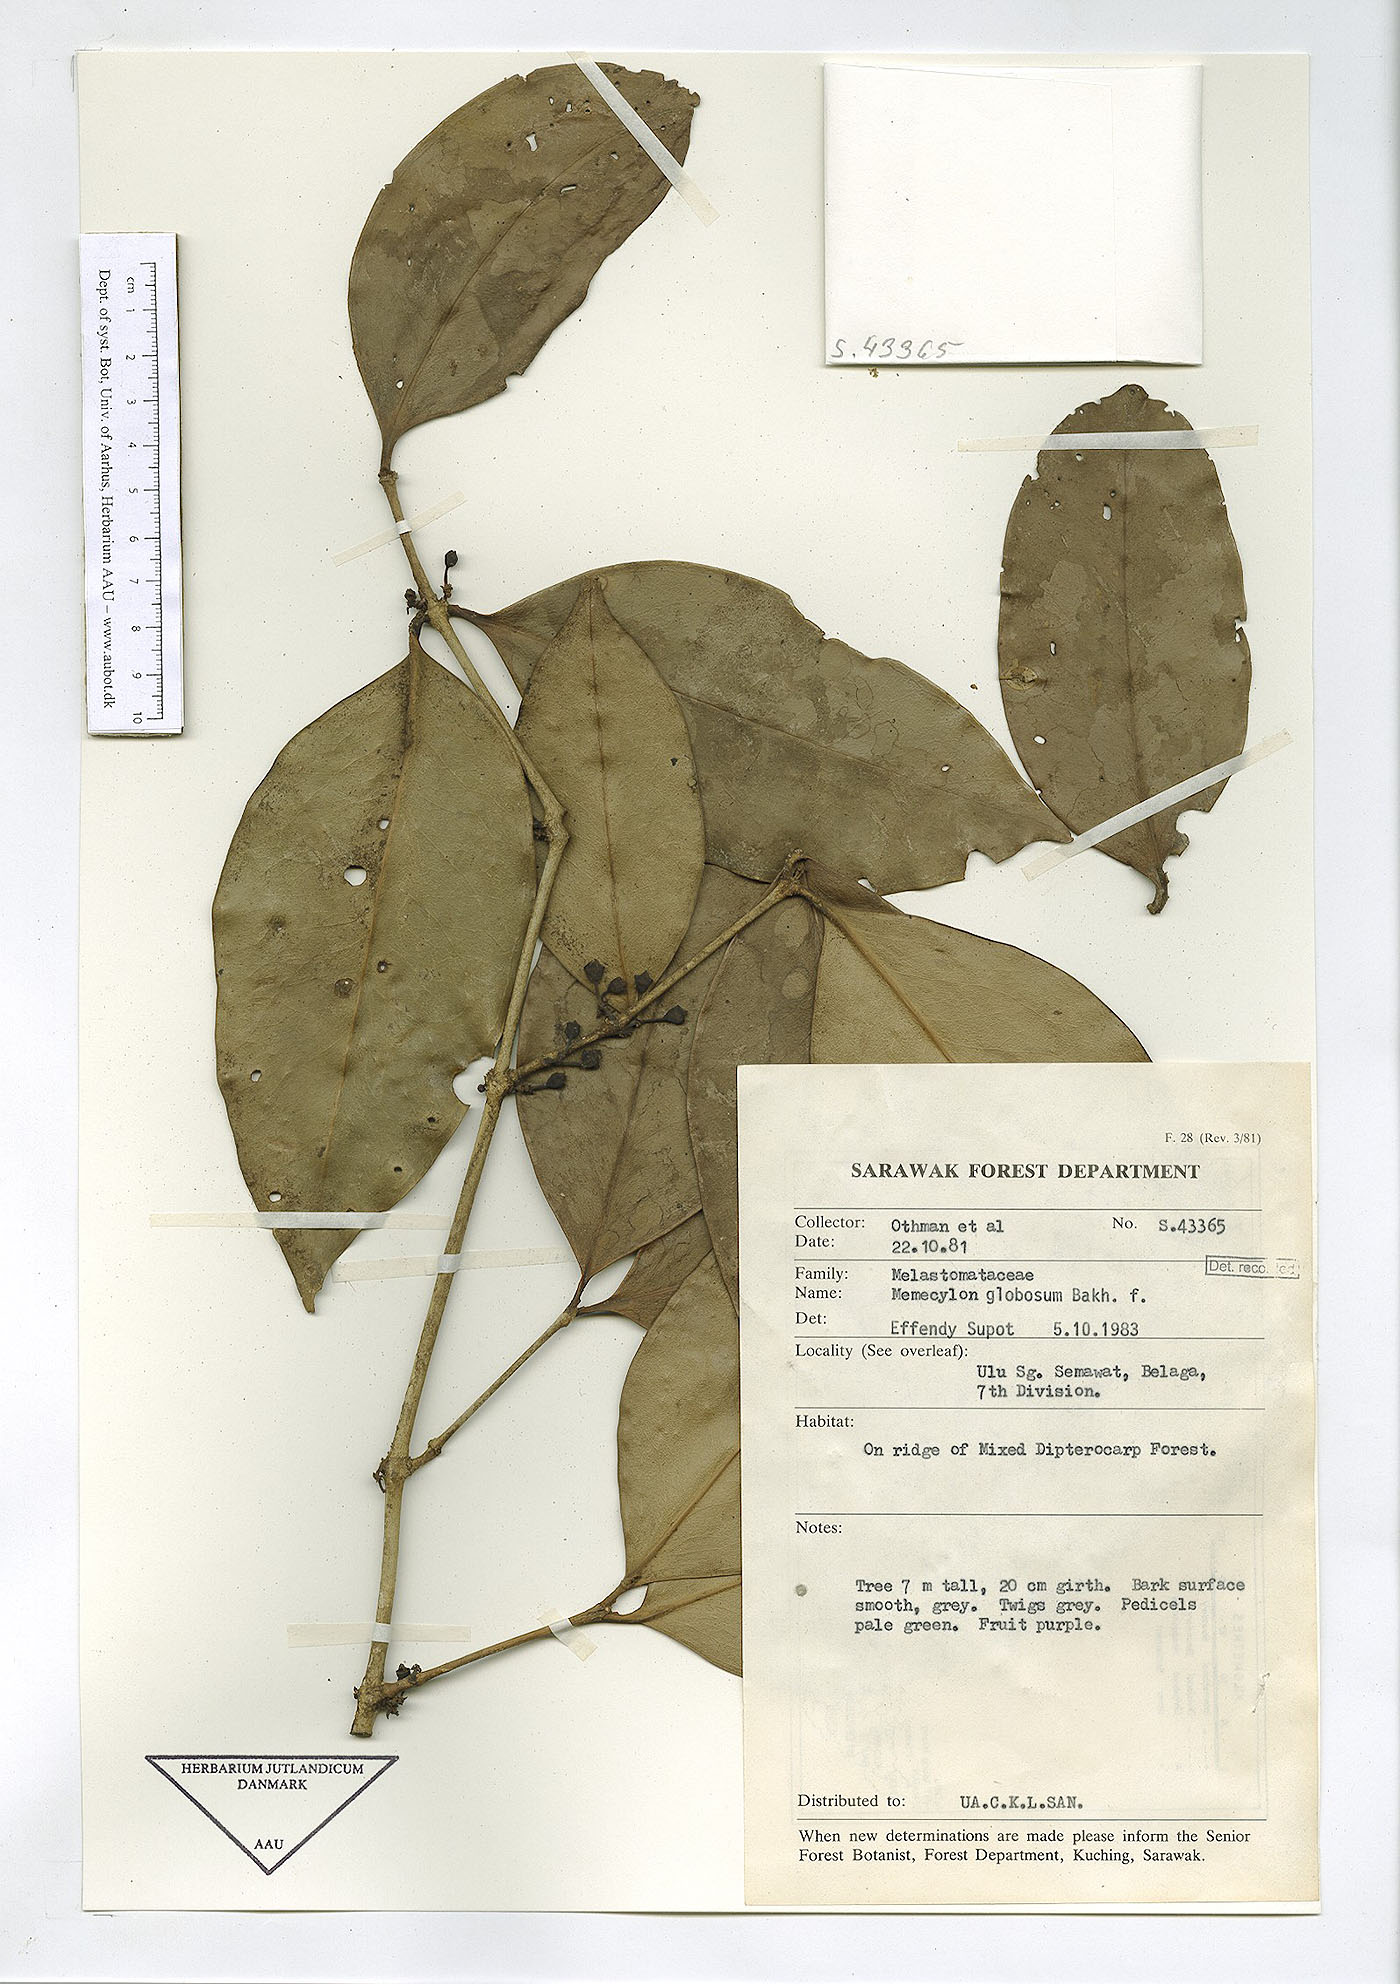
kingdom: Plantae
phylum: Tracheophyta
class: Magnoliopsida
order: Myrtales
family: Melastomataceae
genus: Memecylon
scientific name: Memecylon durum
